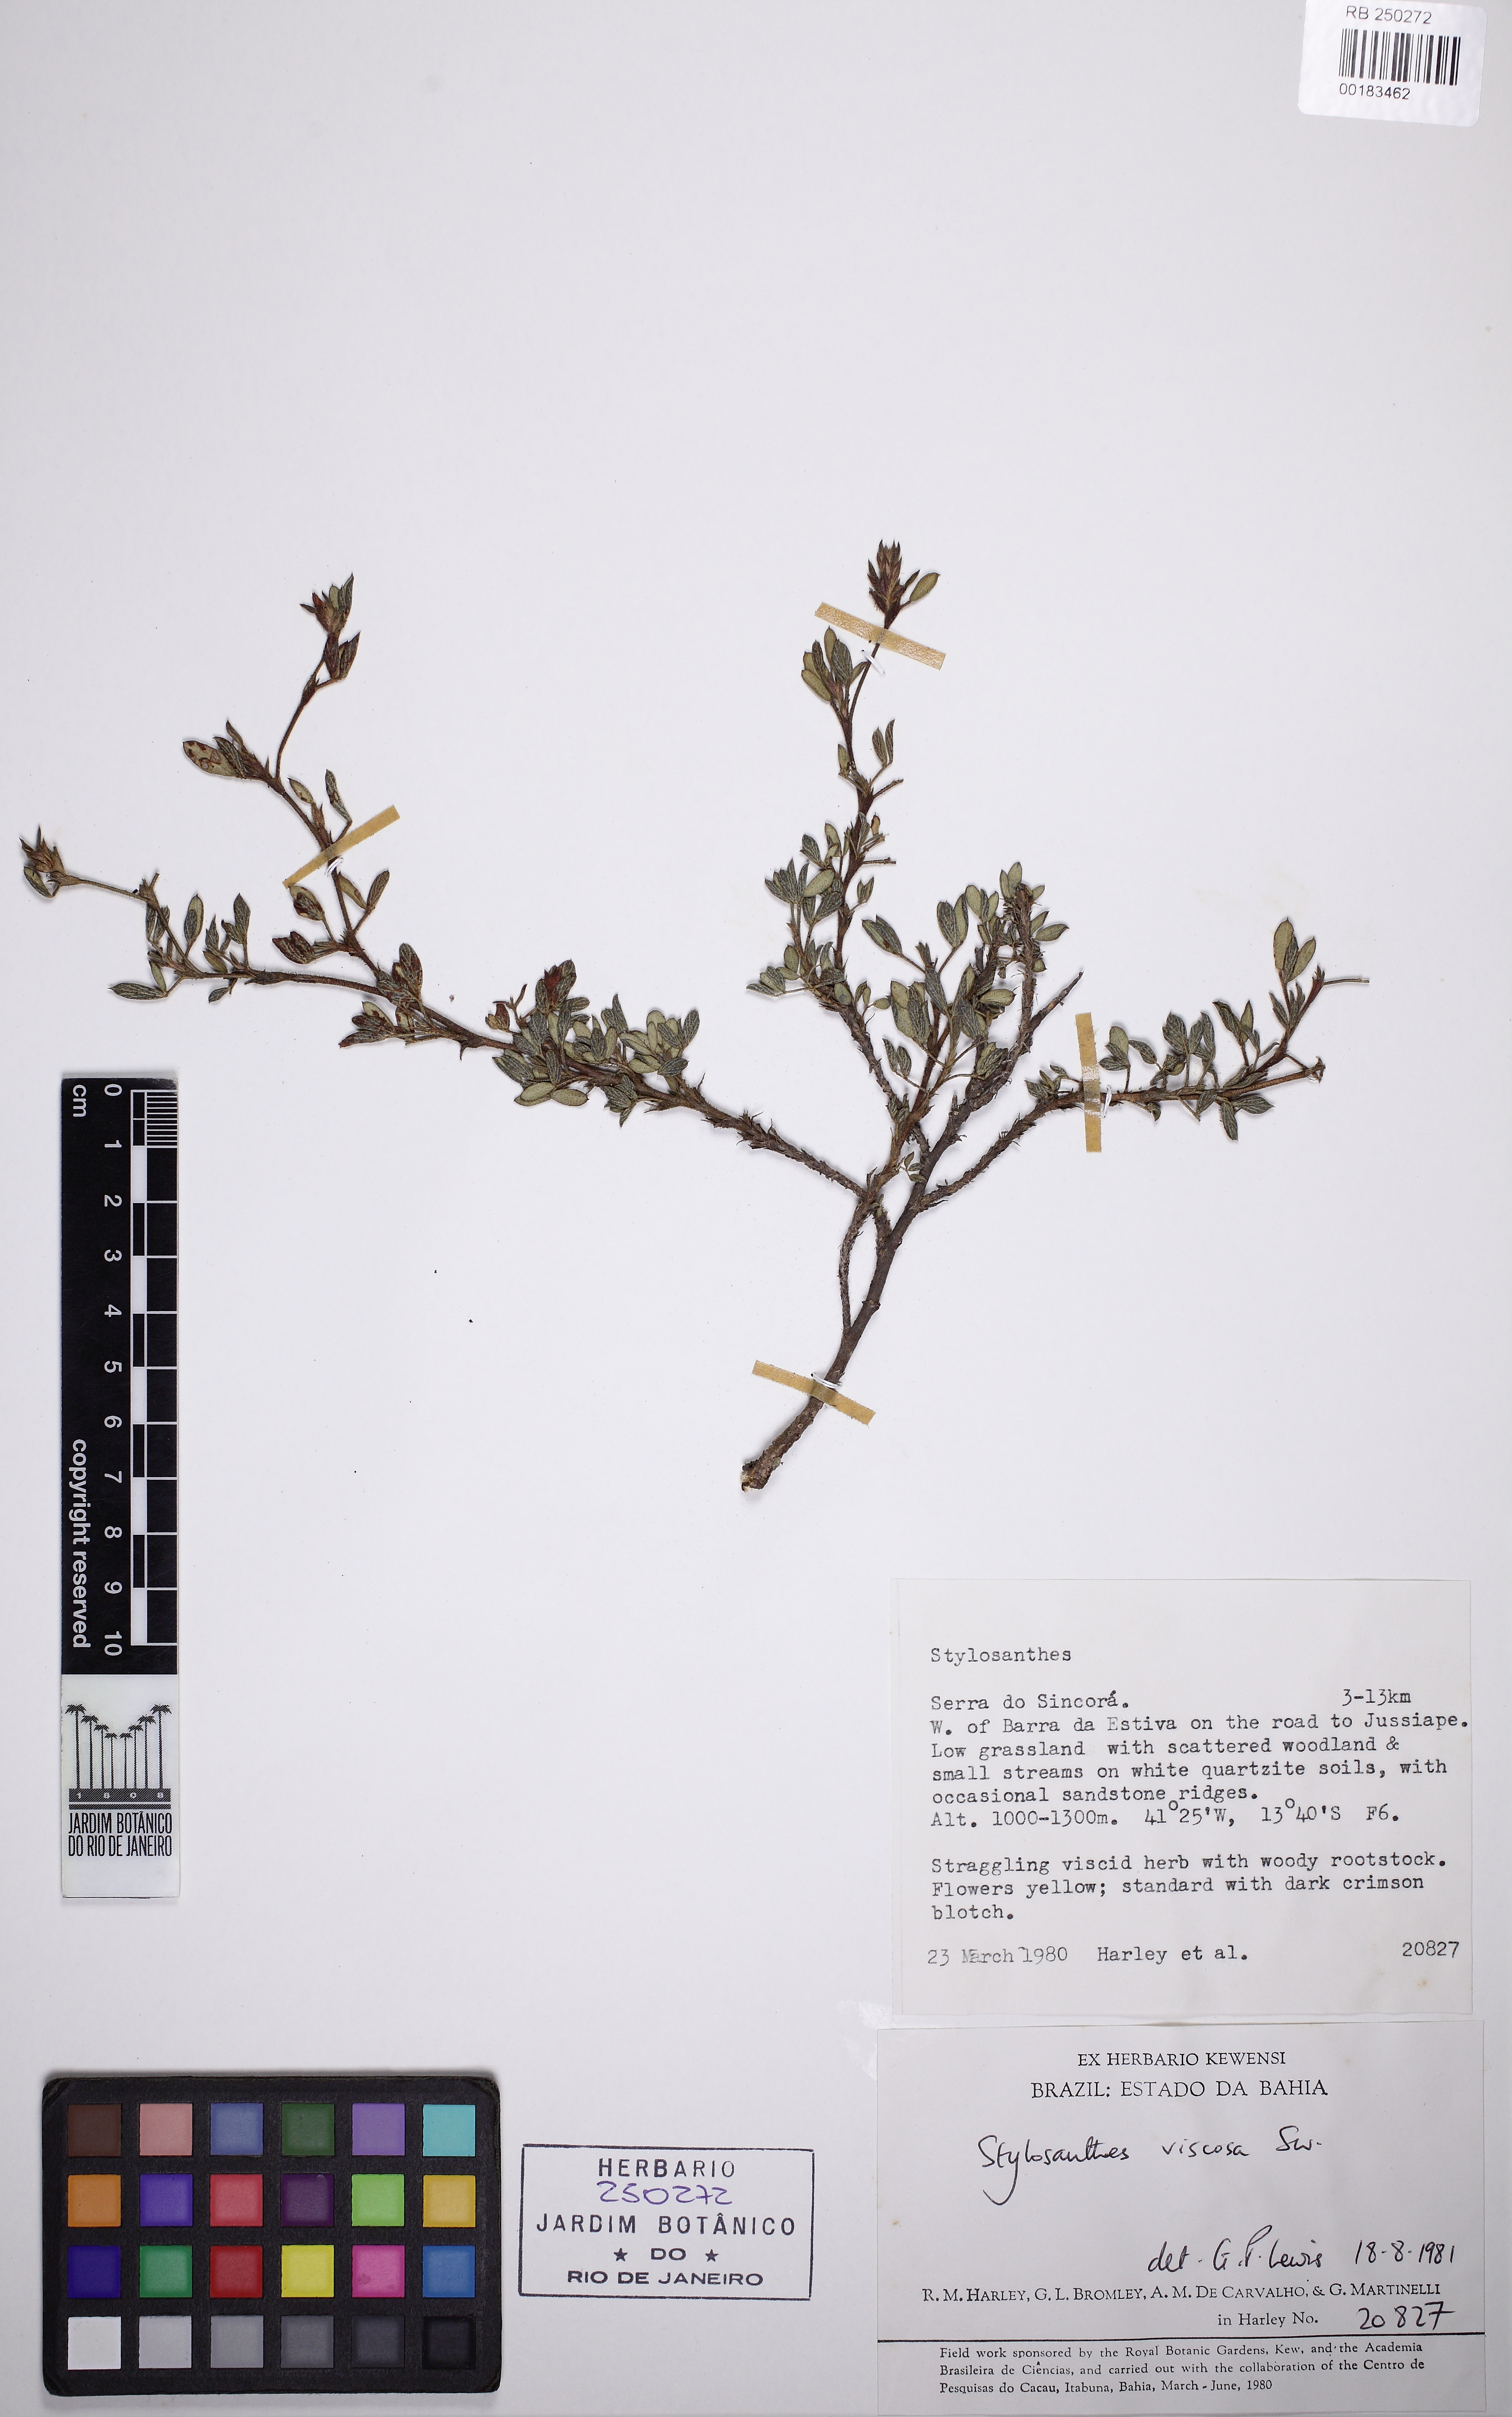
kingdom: Plantae
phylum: Tracheophyta
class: Magnoliopsida
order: Fabales
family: Fabaceae
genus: Stylosanthes
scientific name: Stylosanthes viscosa
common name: Viscid pencil-flower
